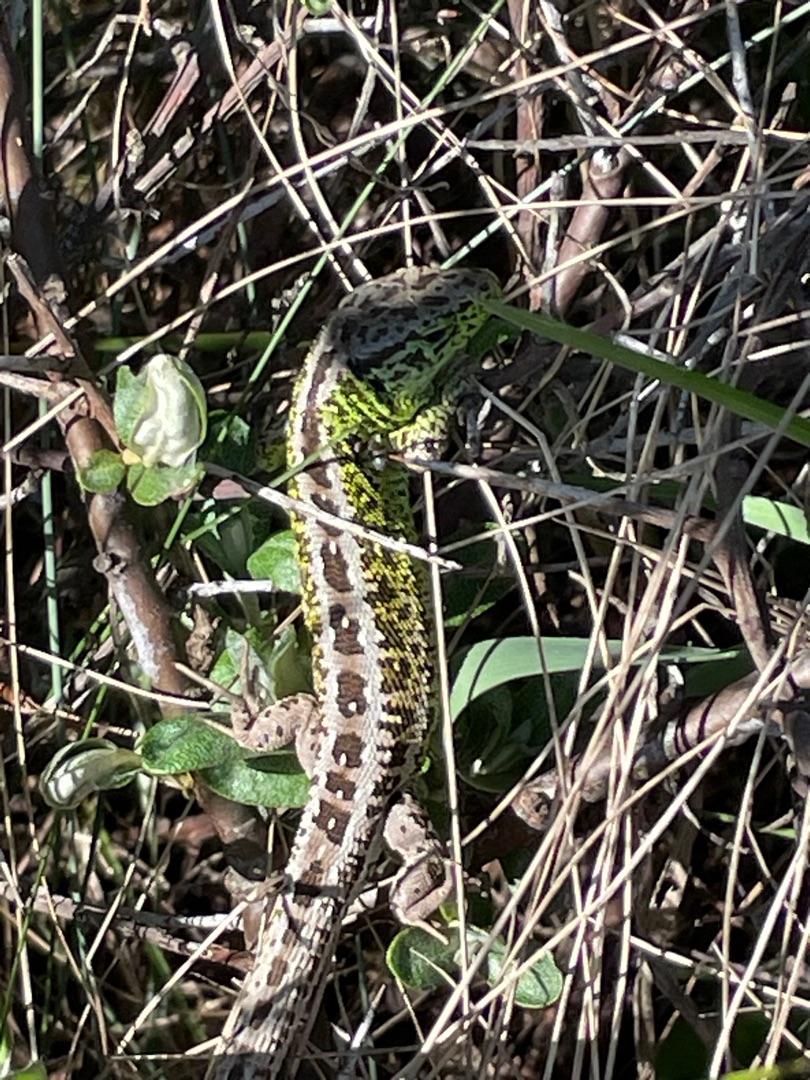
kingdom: Animalia
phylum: Chordata
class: Squamata
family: Lacertidae
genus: Lacerta
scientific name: Lacerta agilis
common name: Markfirben
